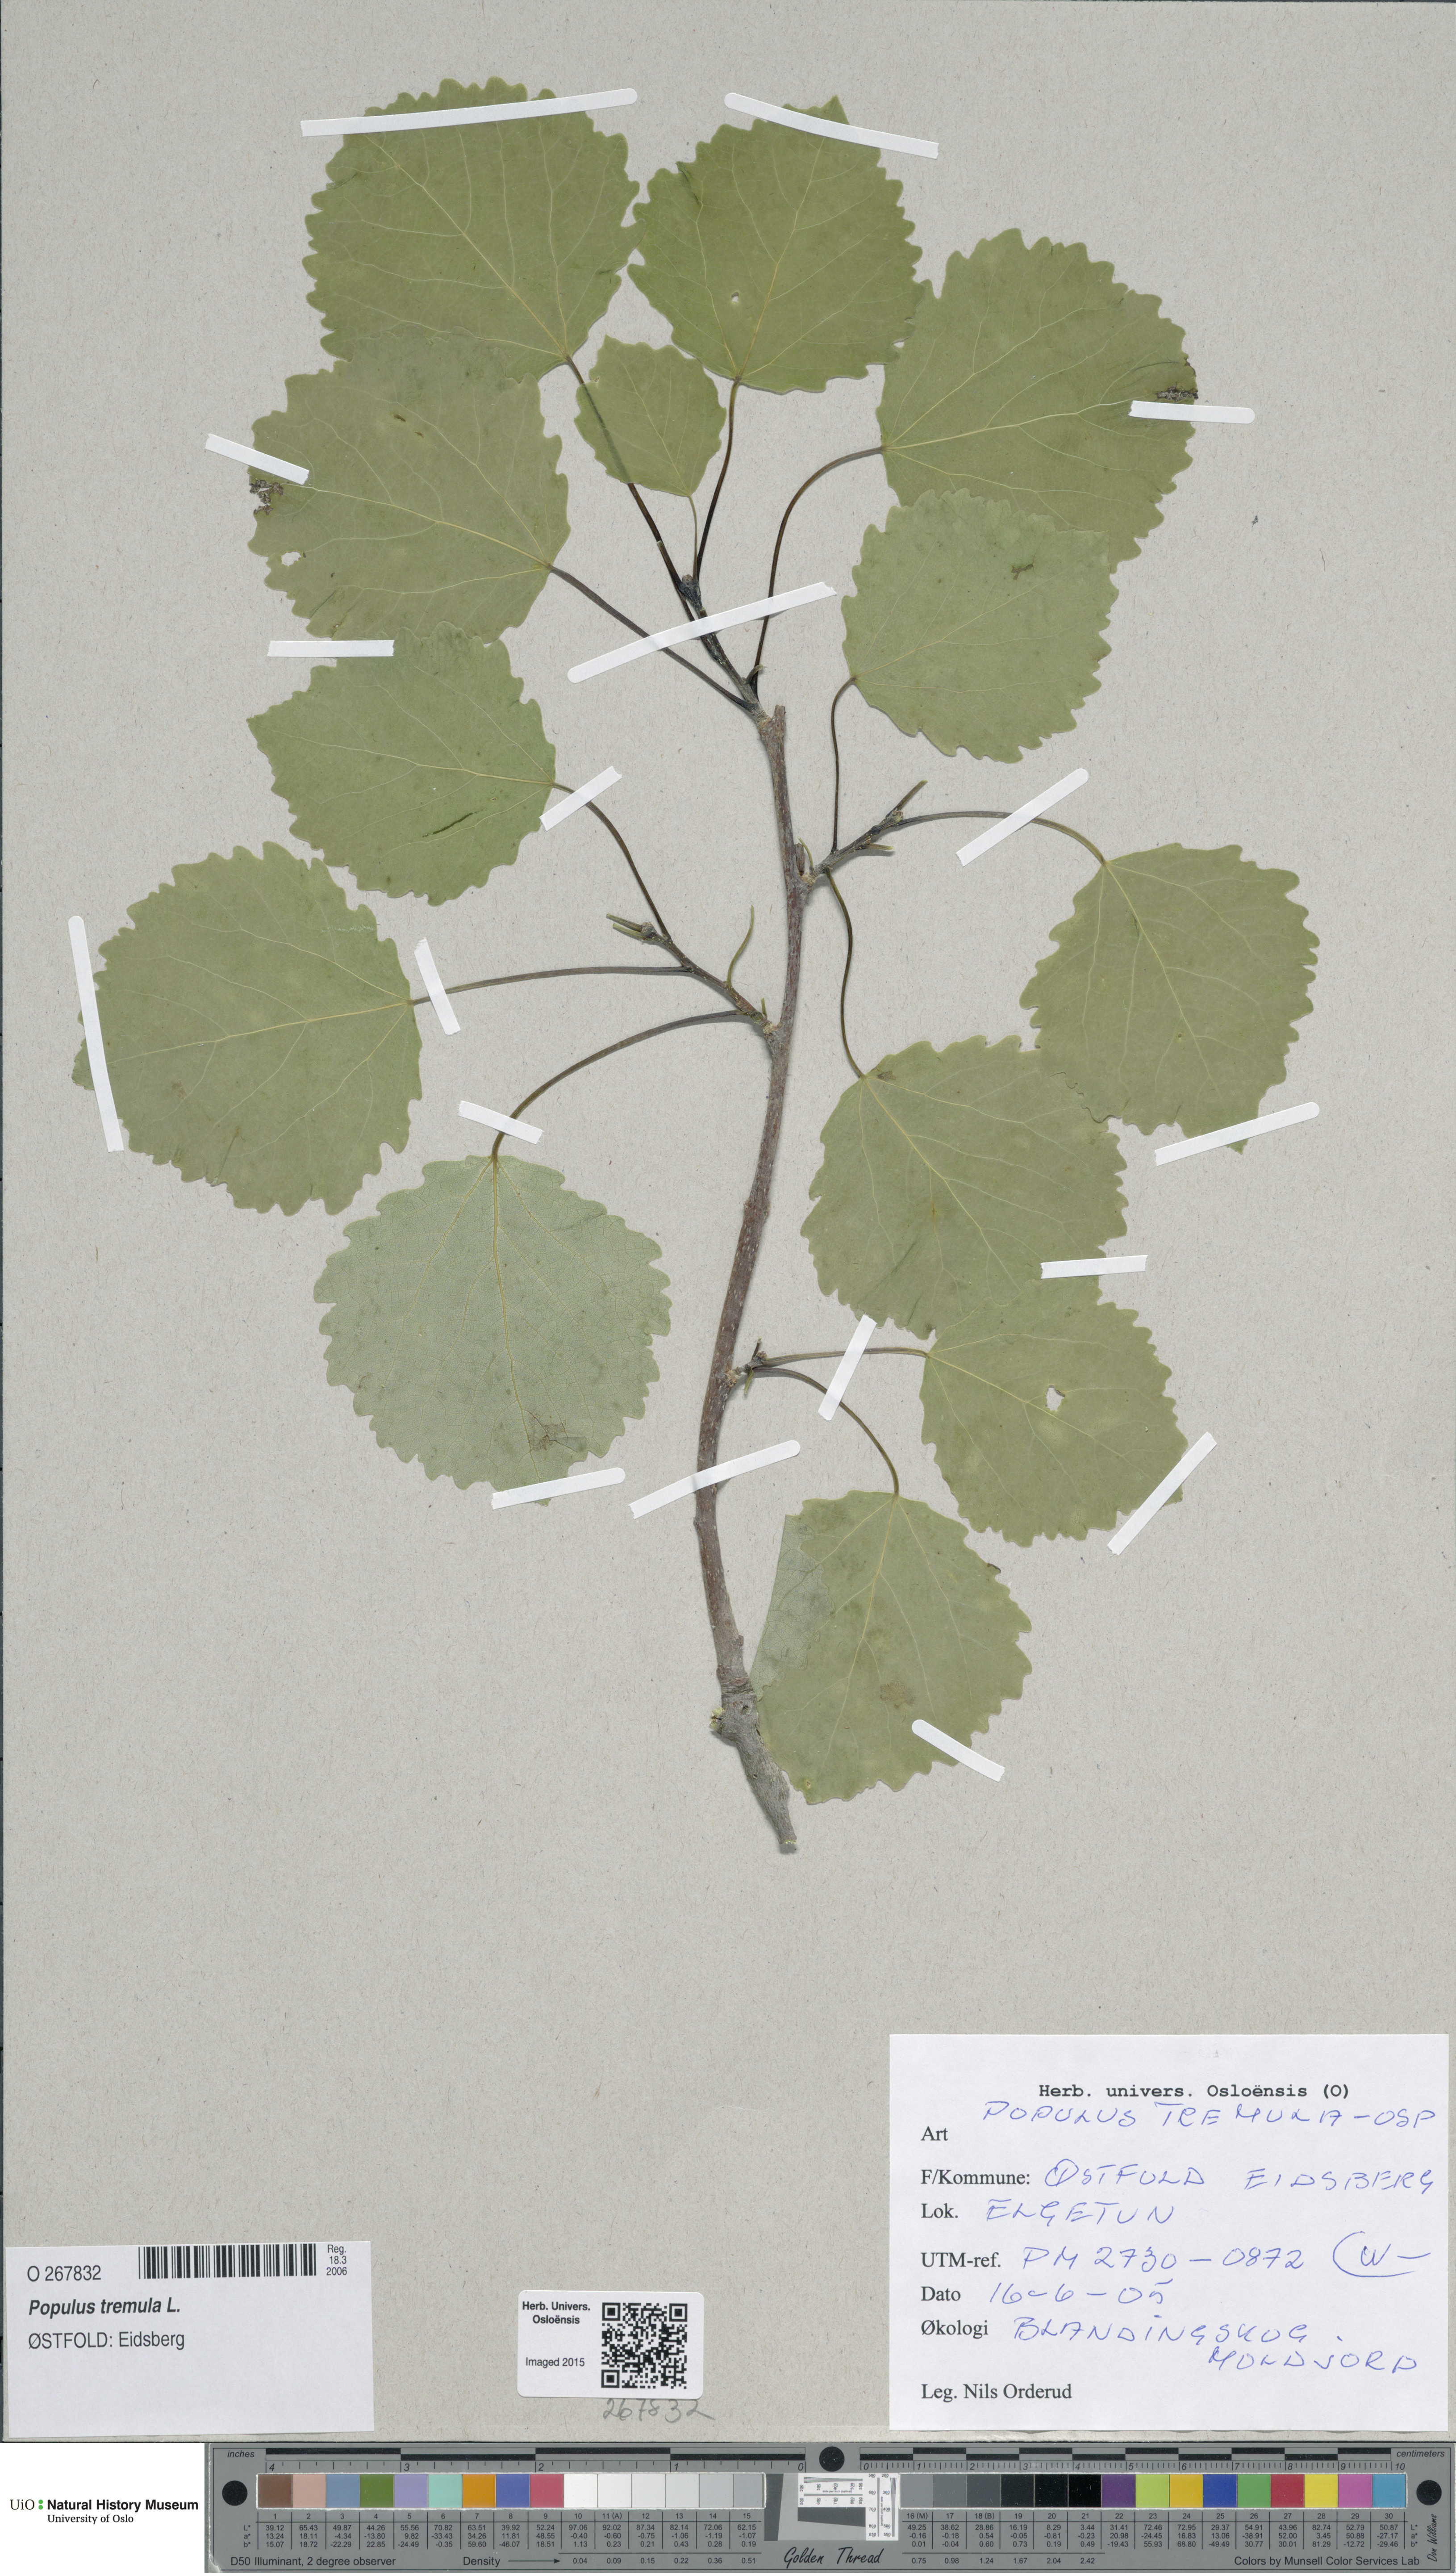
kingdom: Plantae
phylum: Tracheophyta
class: Magnoliopsida
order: Malpighiales
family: Salicaceae
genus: Populus
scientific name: Populus tremula
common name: European aspen
